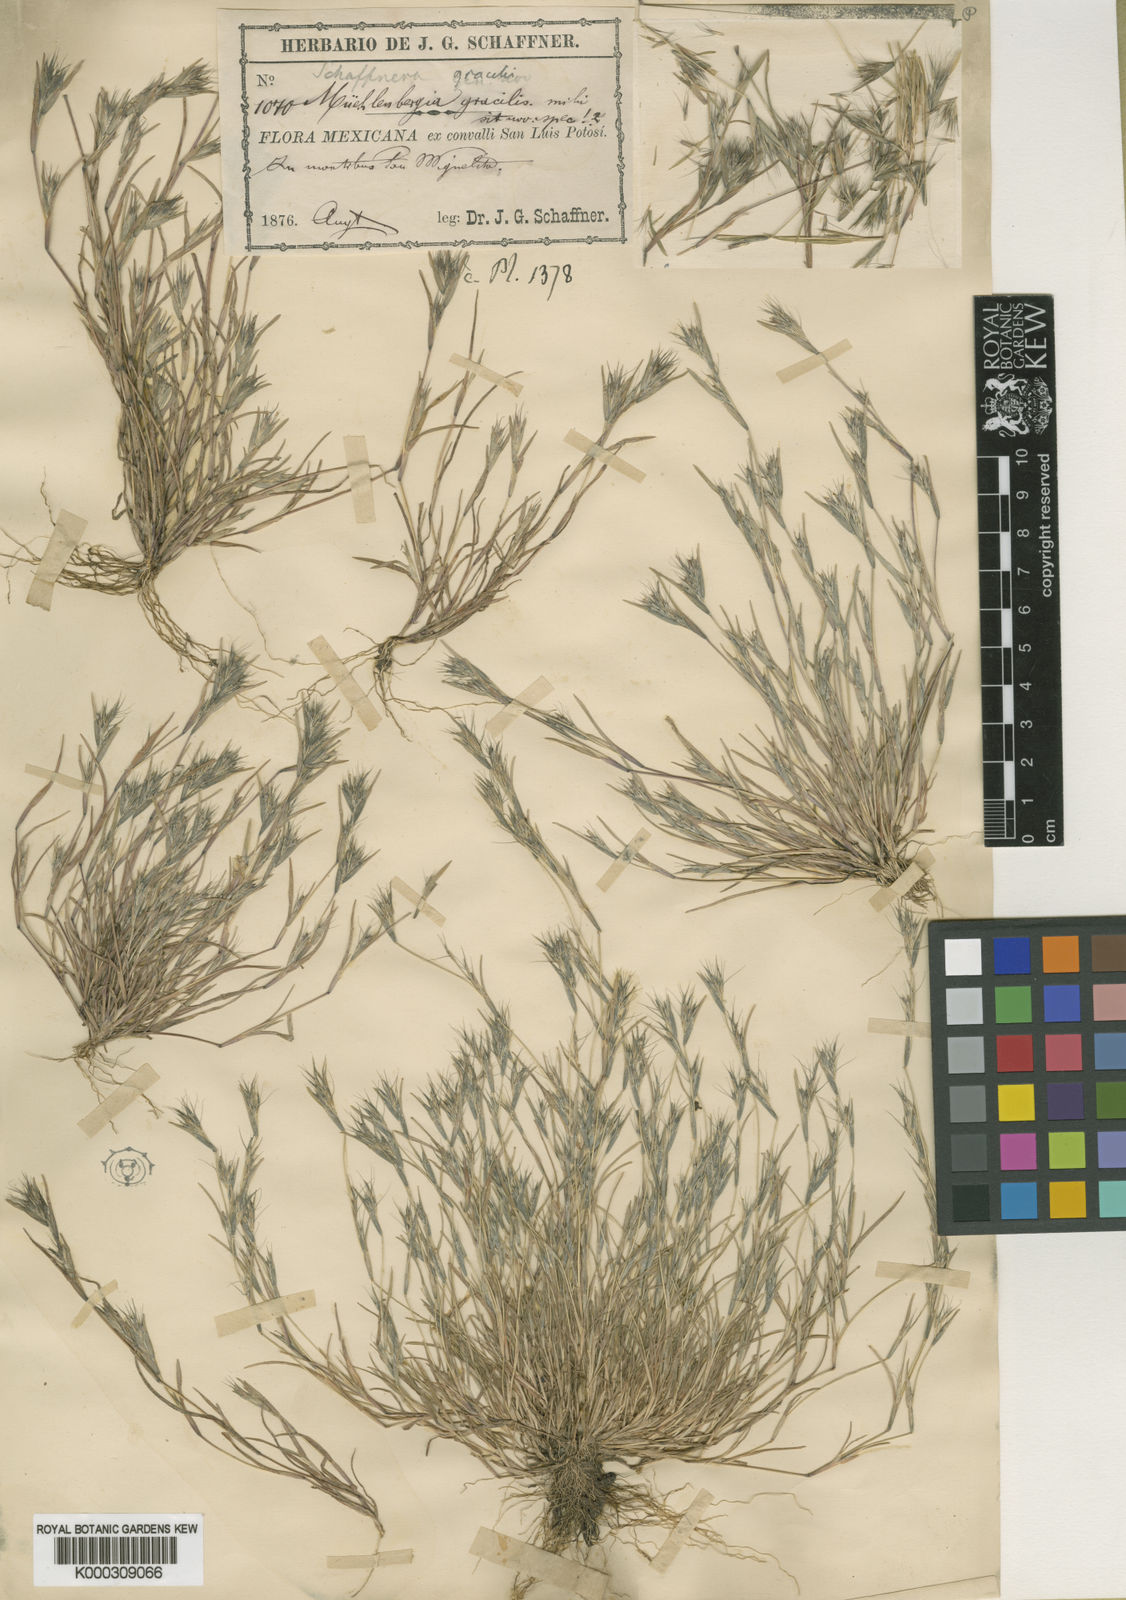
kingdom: Plantae
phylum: Tracheophyta
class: Liliopsida
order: Poales
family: Poaceae
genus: Muhlenbergia
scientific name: Muhlenbergia spatha
